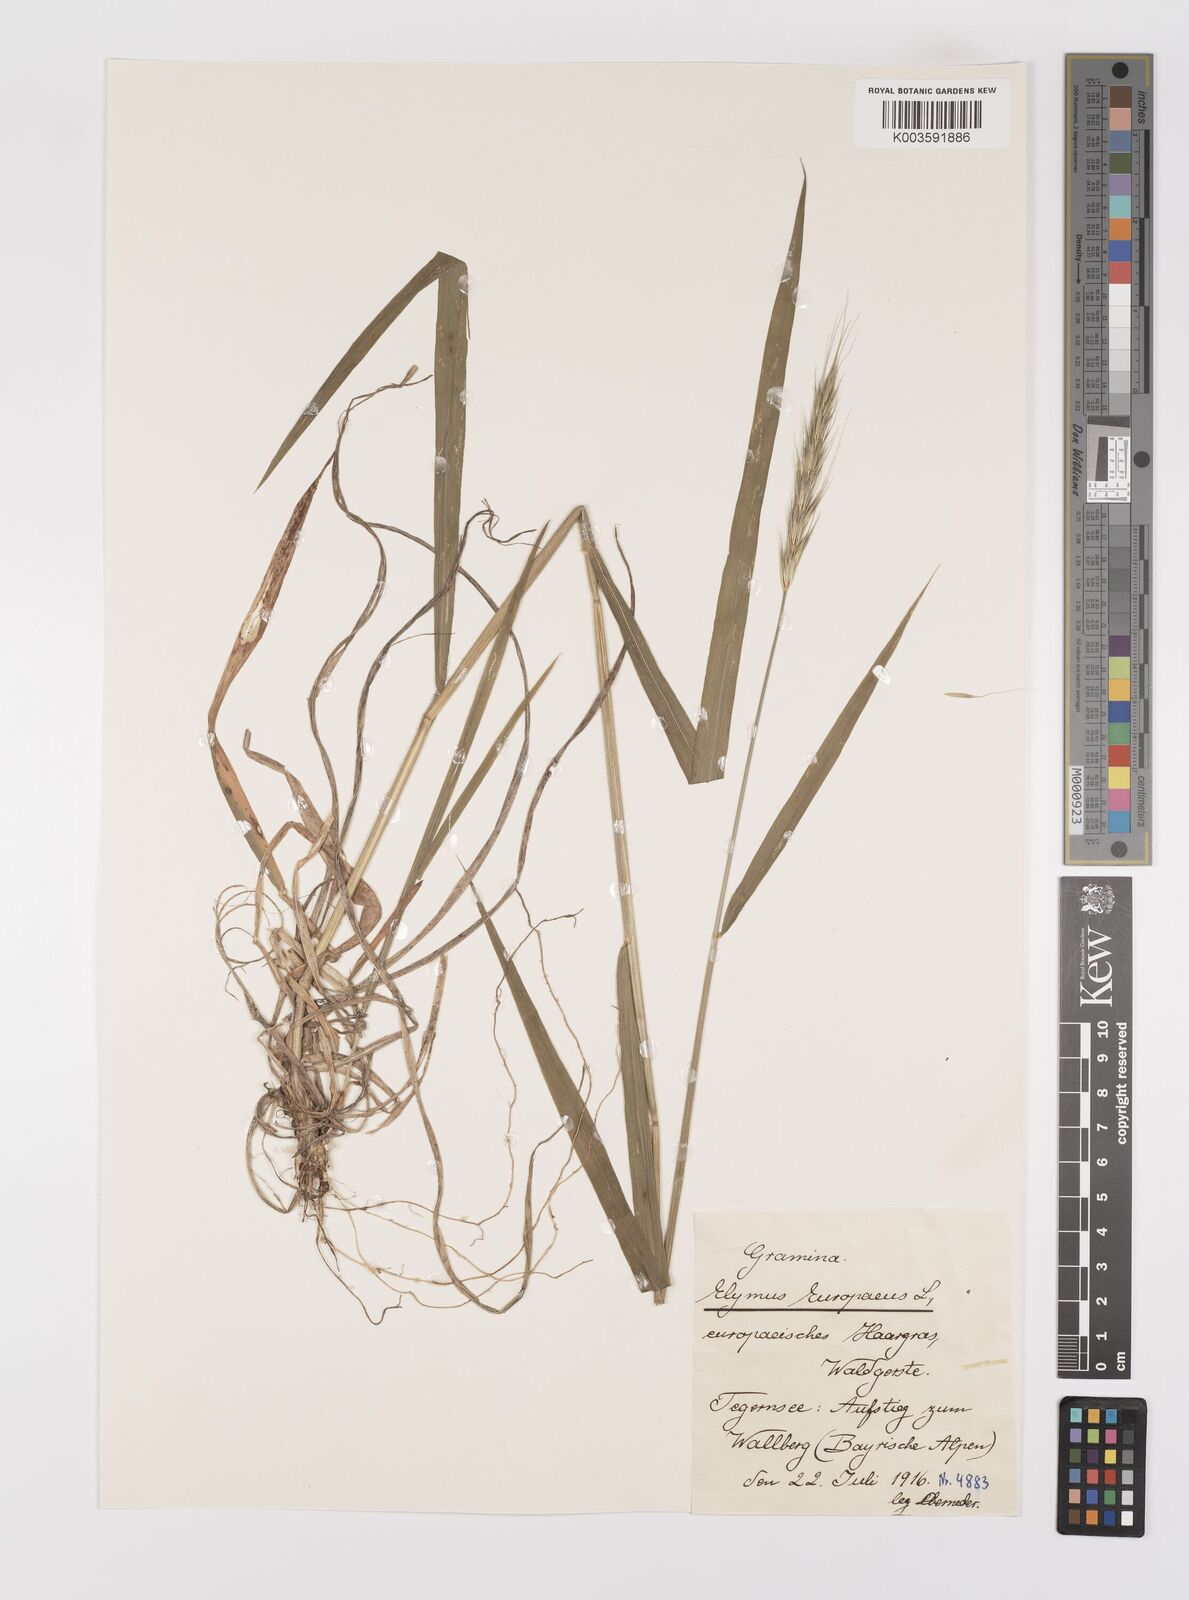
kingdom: Plantae
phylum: Tracheophyta
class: Liliopsida
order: Poales
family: Poaceae
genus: Hordelymus
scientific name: Hordelymus europaeus
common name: Wood-barley
